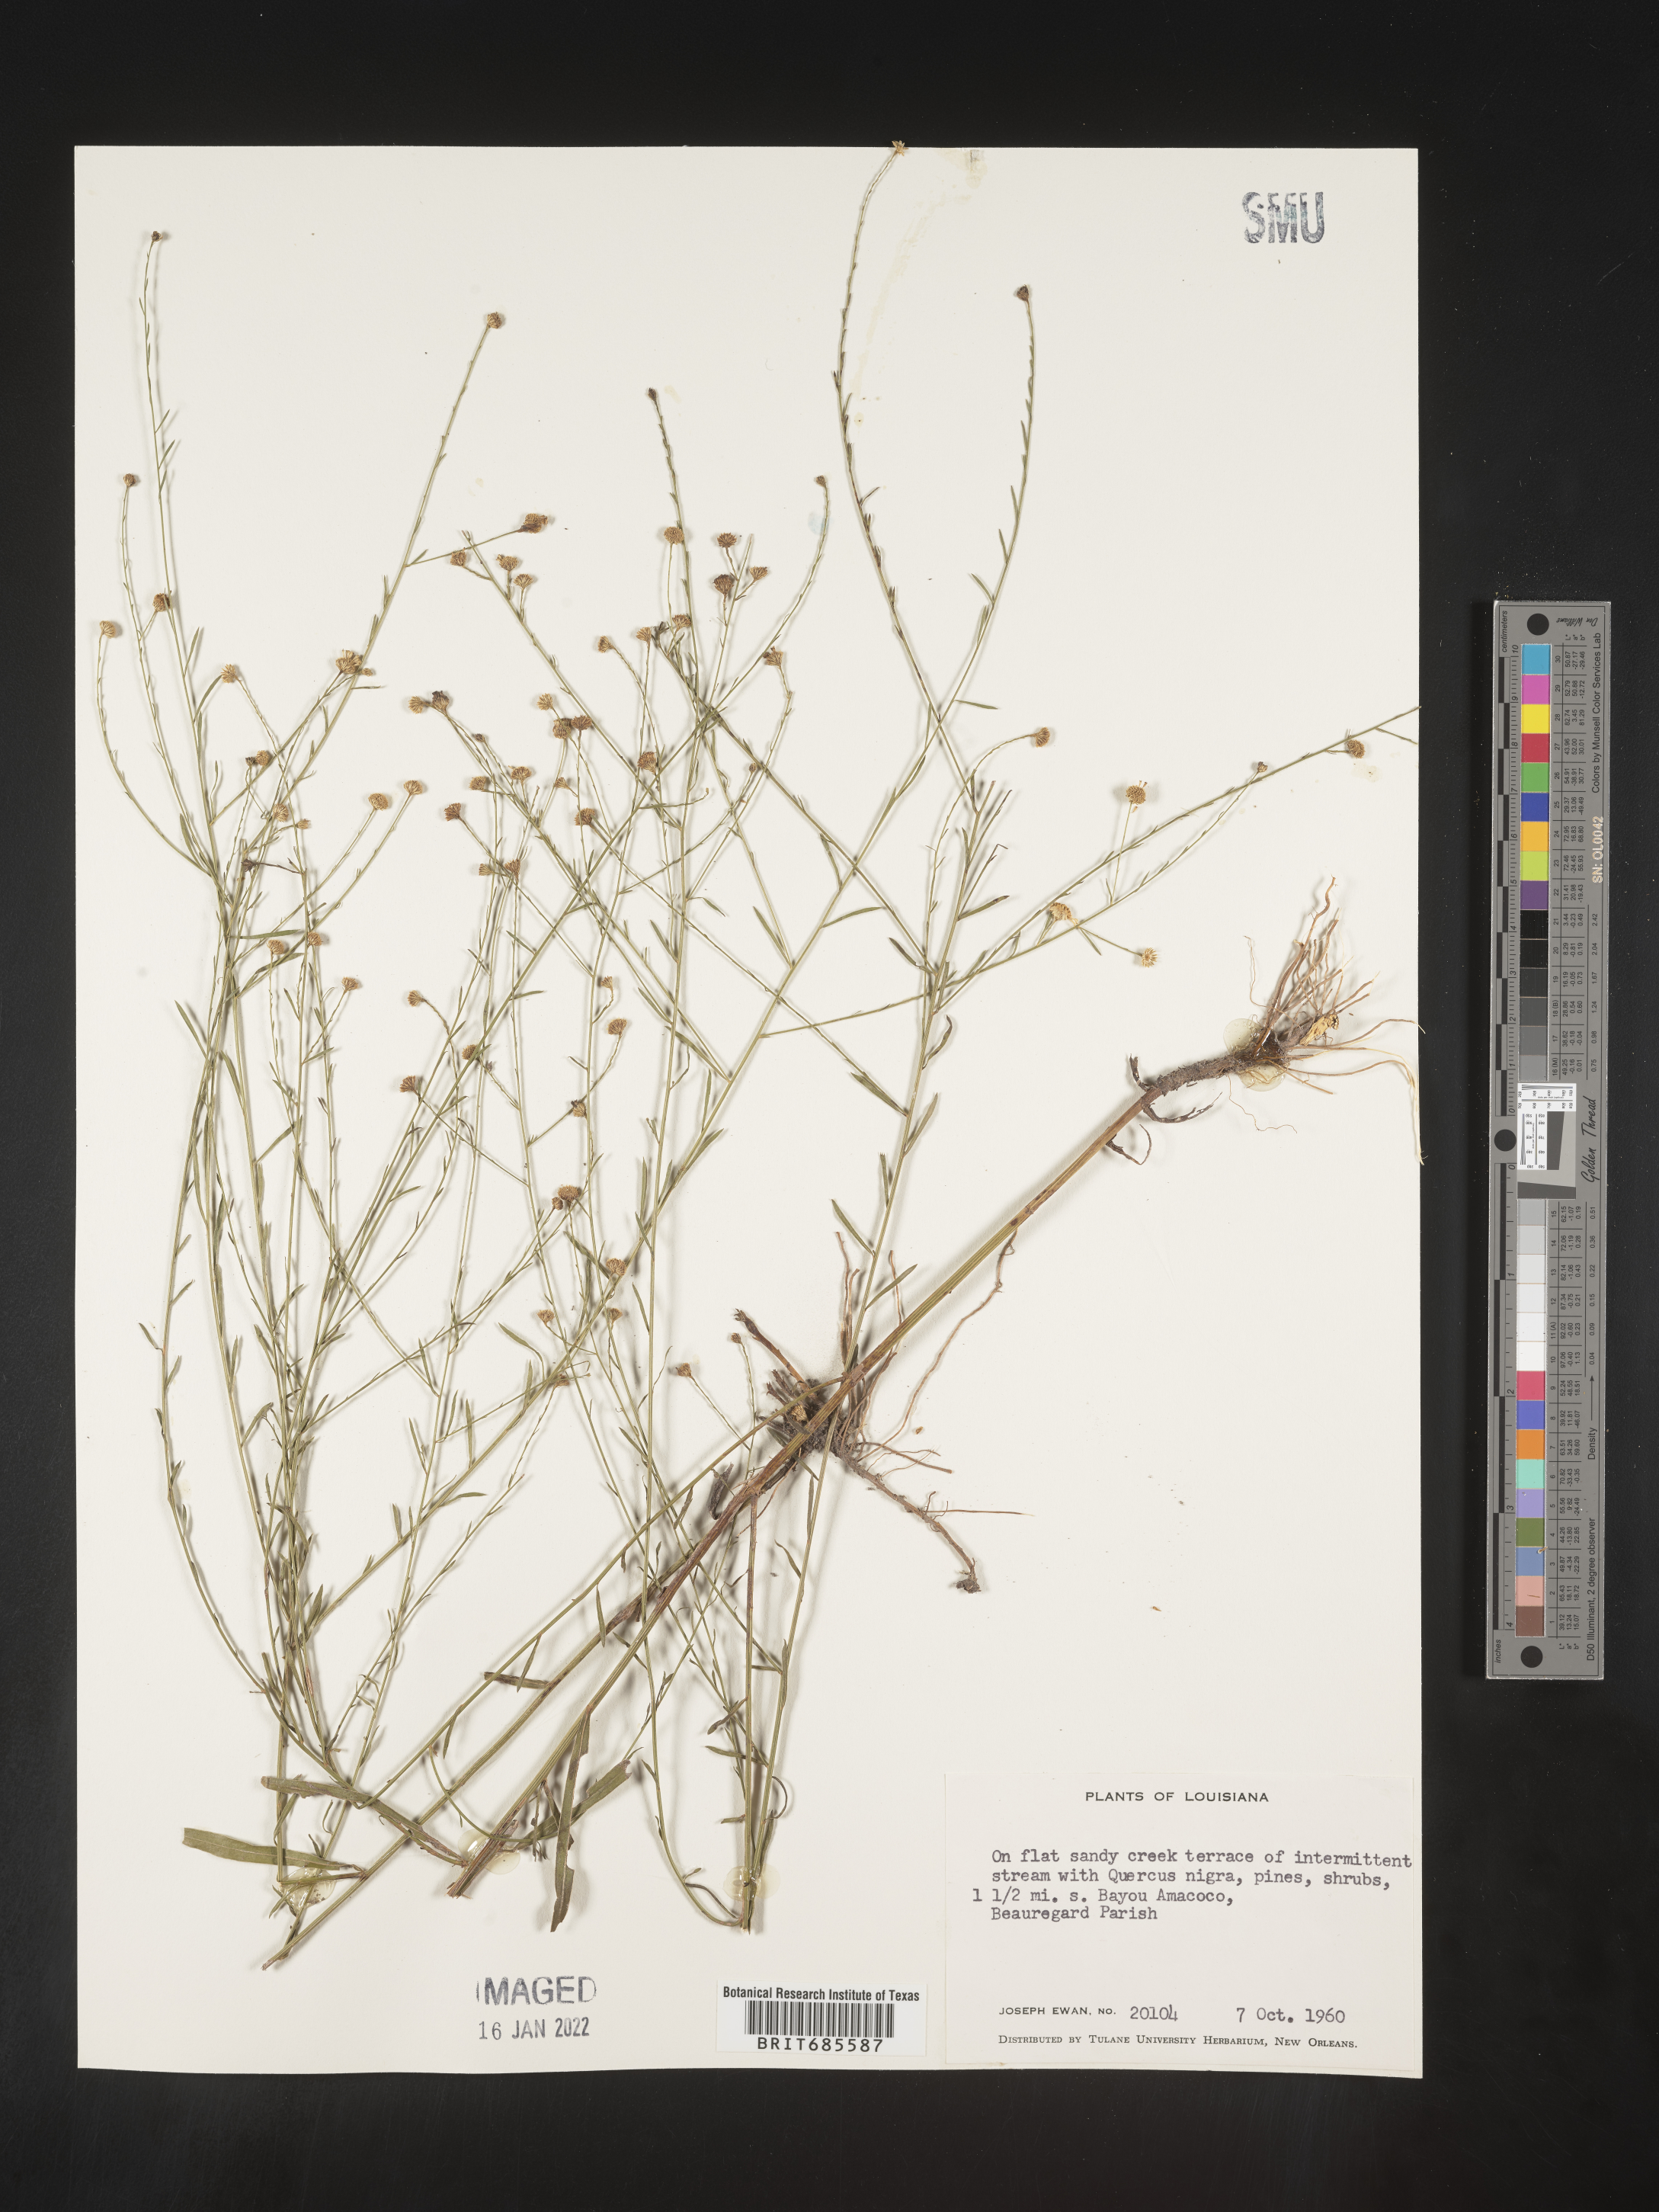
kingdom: Plantae
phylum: Tracheophyta
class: Magnoliopsida
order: Asterales
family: Asteraceae
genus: Boltonia
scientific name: Boltonia diffusa
